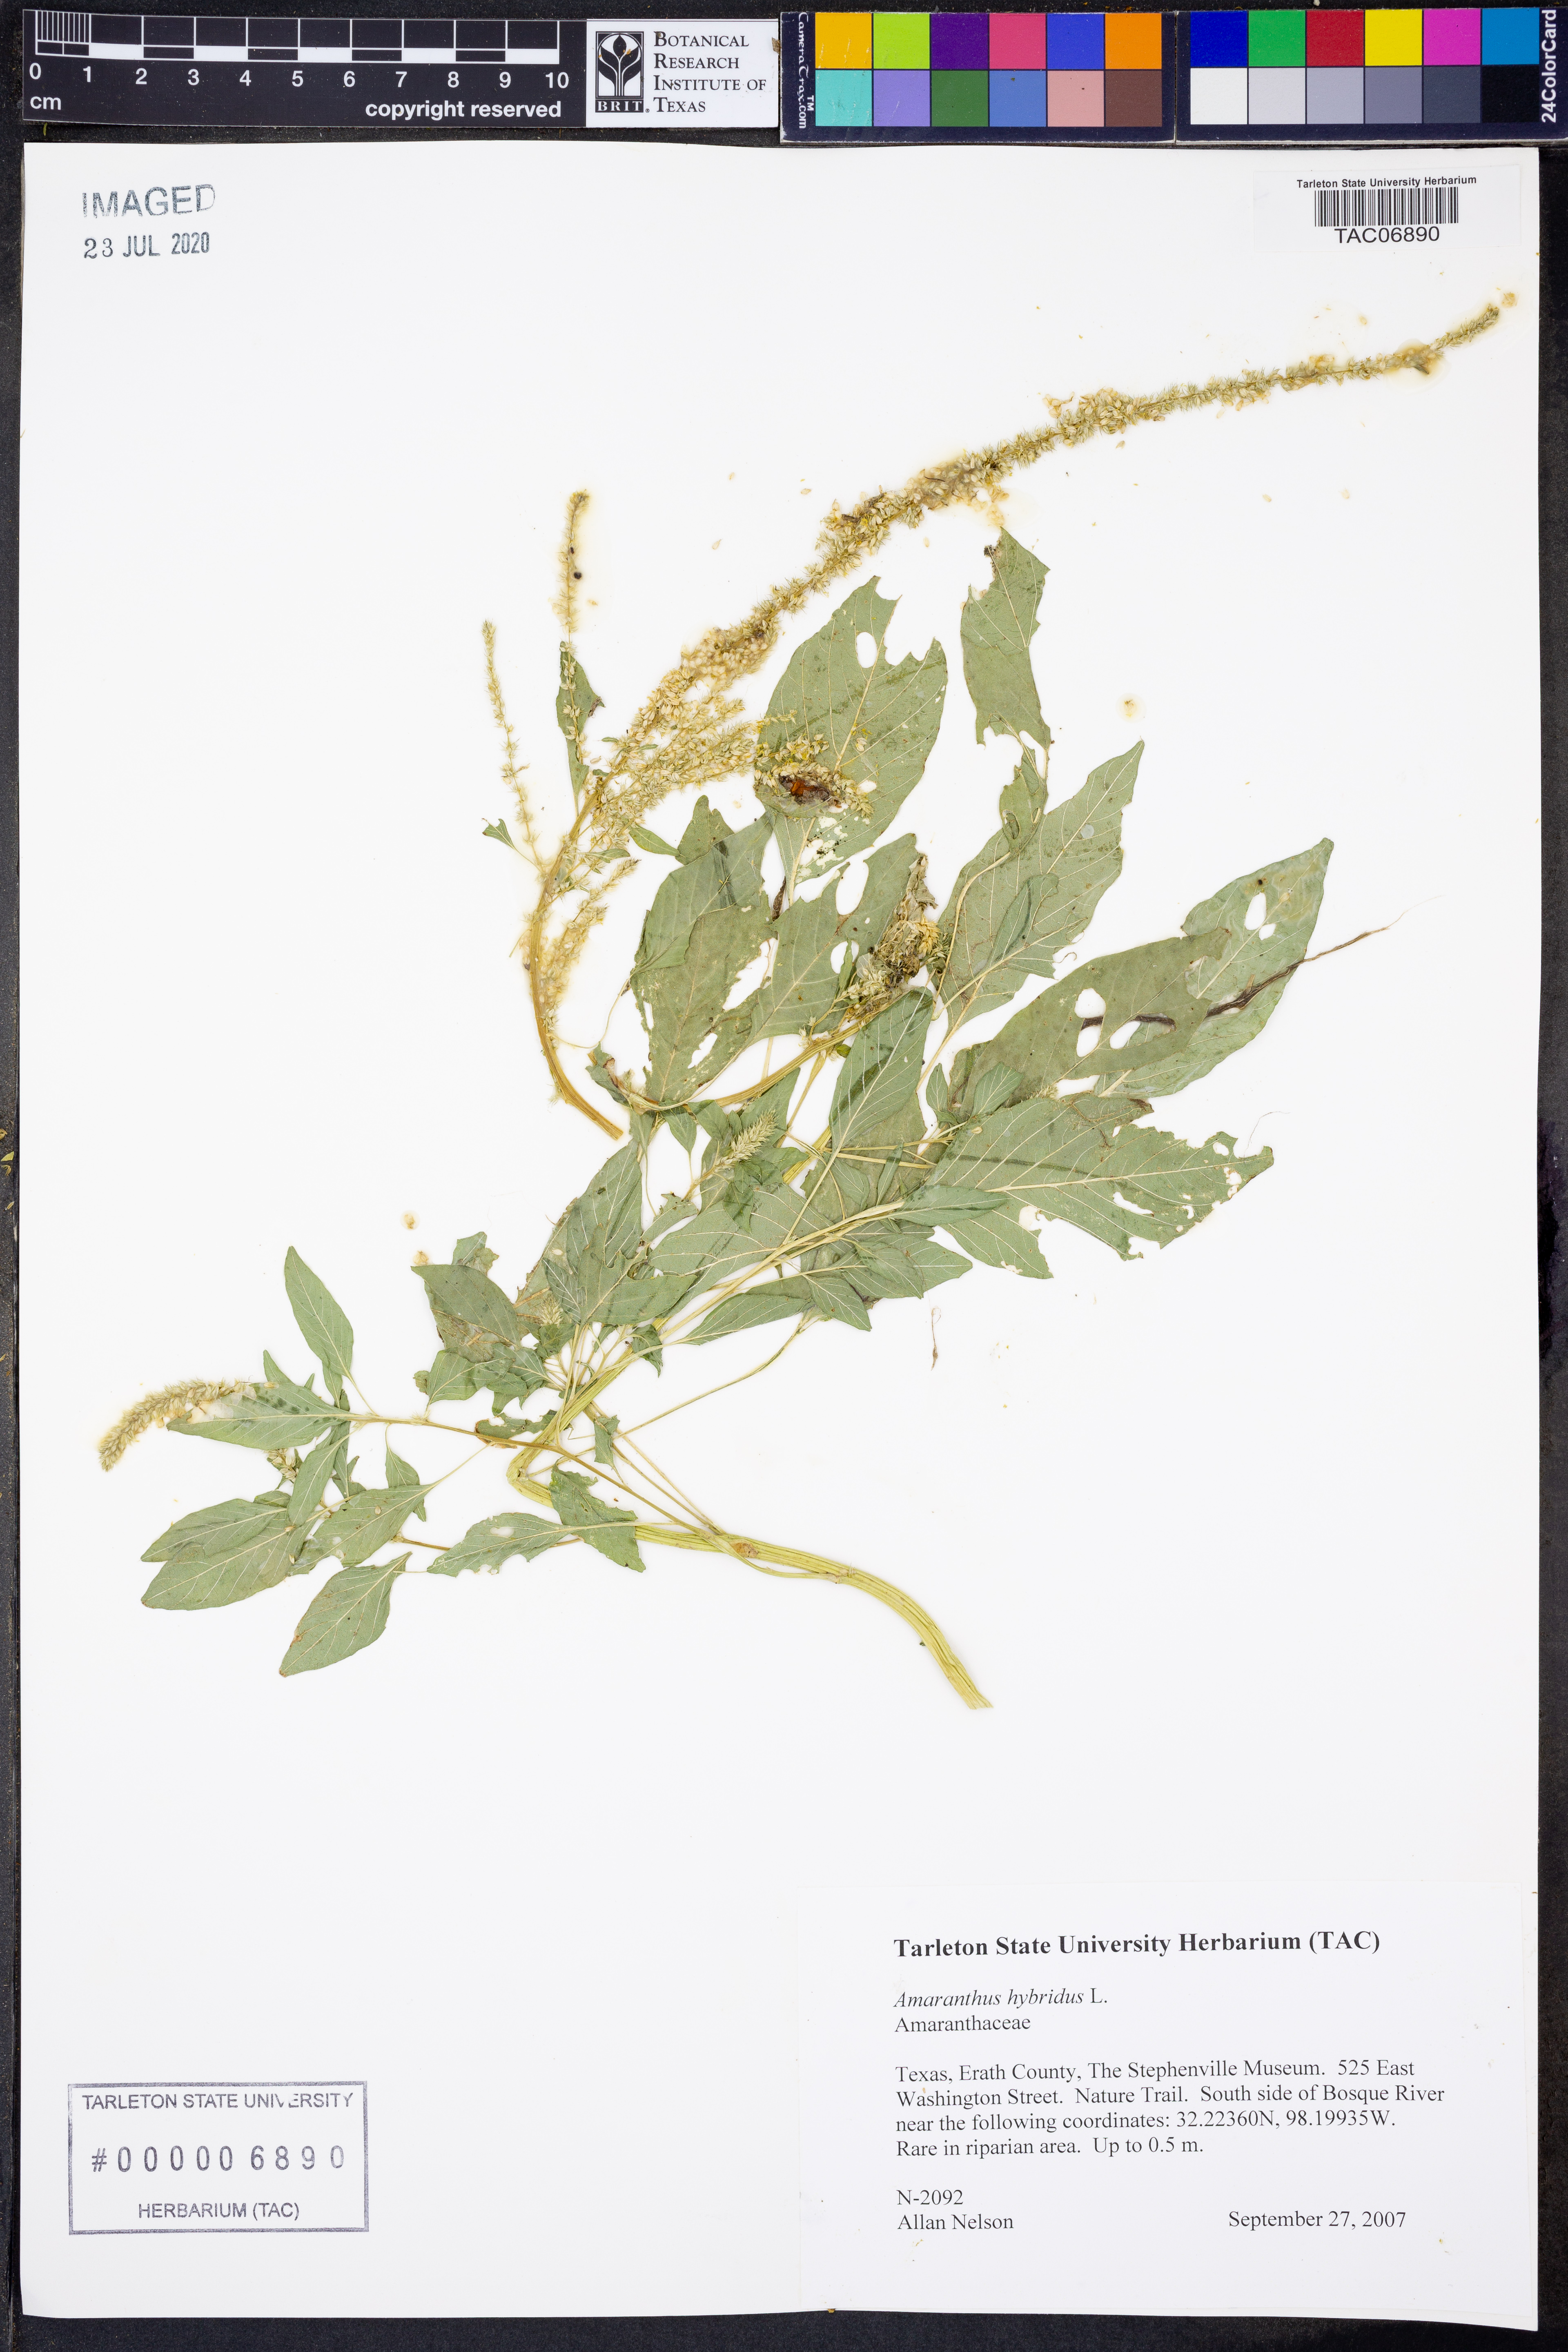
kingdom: Plantae
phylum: Tracheophyta
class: Magnoliopsida
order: Caryophyllales
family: Amaranthaceae
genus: Amaranthus
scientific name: Amaranthus hybridus
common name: Green amaranth
